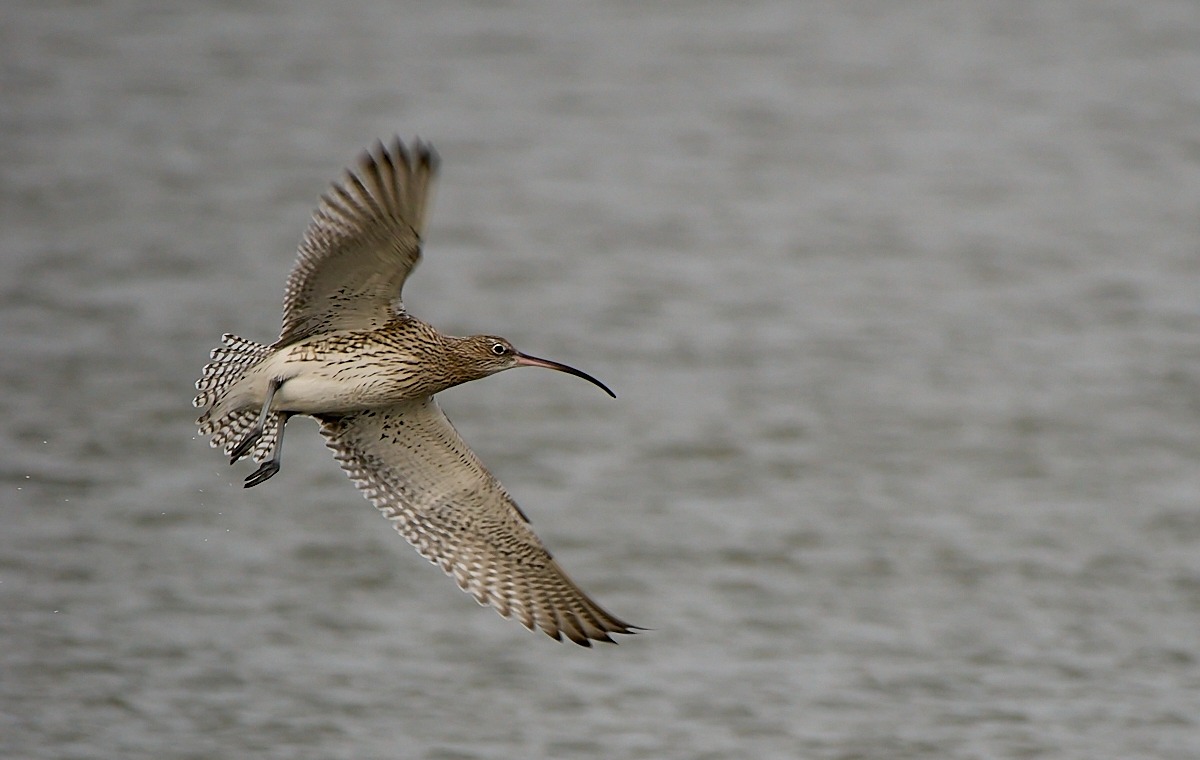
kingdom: Animalia
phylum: Chordata
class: Aves
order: Charadriiformes
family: Scolopacidae
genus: Numenius
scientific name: Numenius arquata
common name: Storspove
